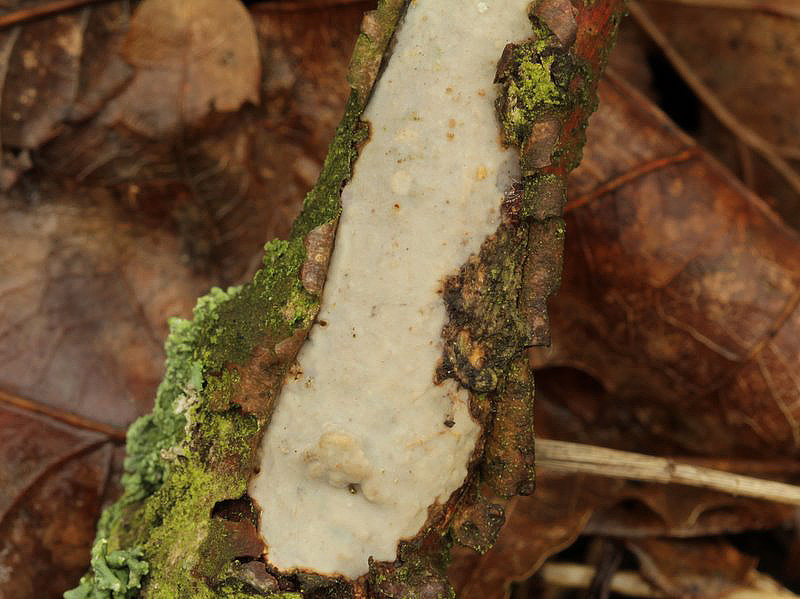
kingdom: Fungi
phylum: Basidiomycota
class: Agaricomycetes
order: Corticiales
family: Vuilleminiaceae
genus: Vuilleminia
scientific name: Vuilleminia cystidiata
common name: tjørne-barksprænger
